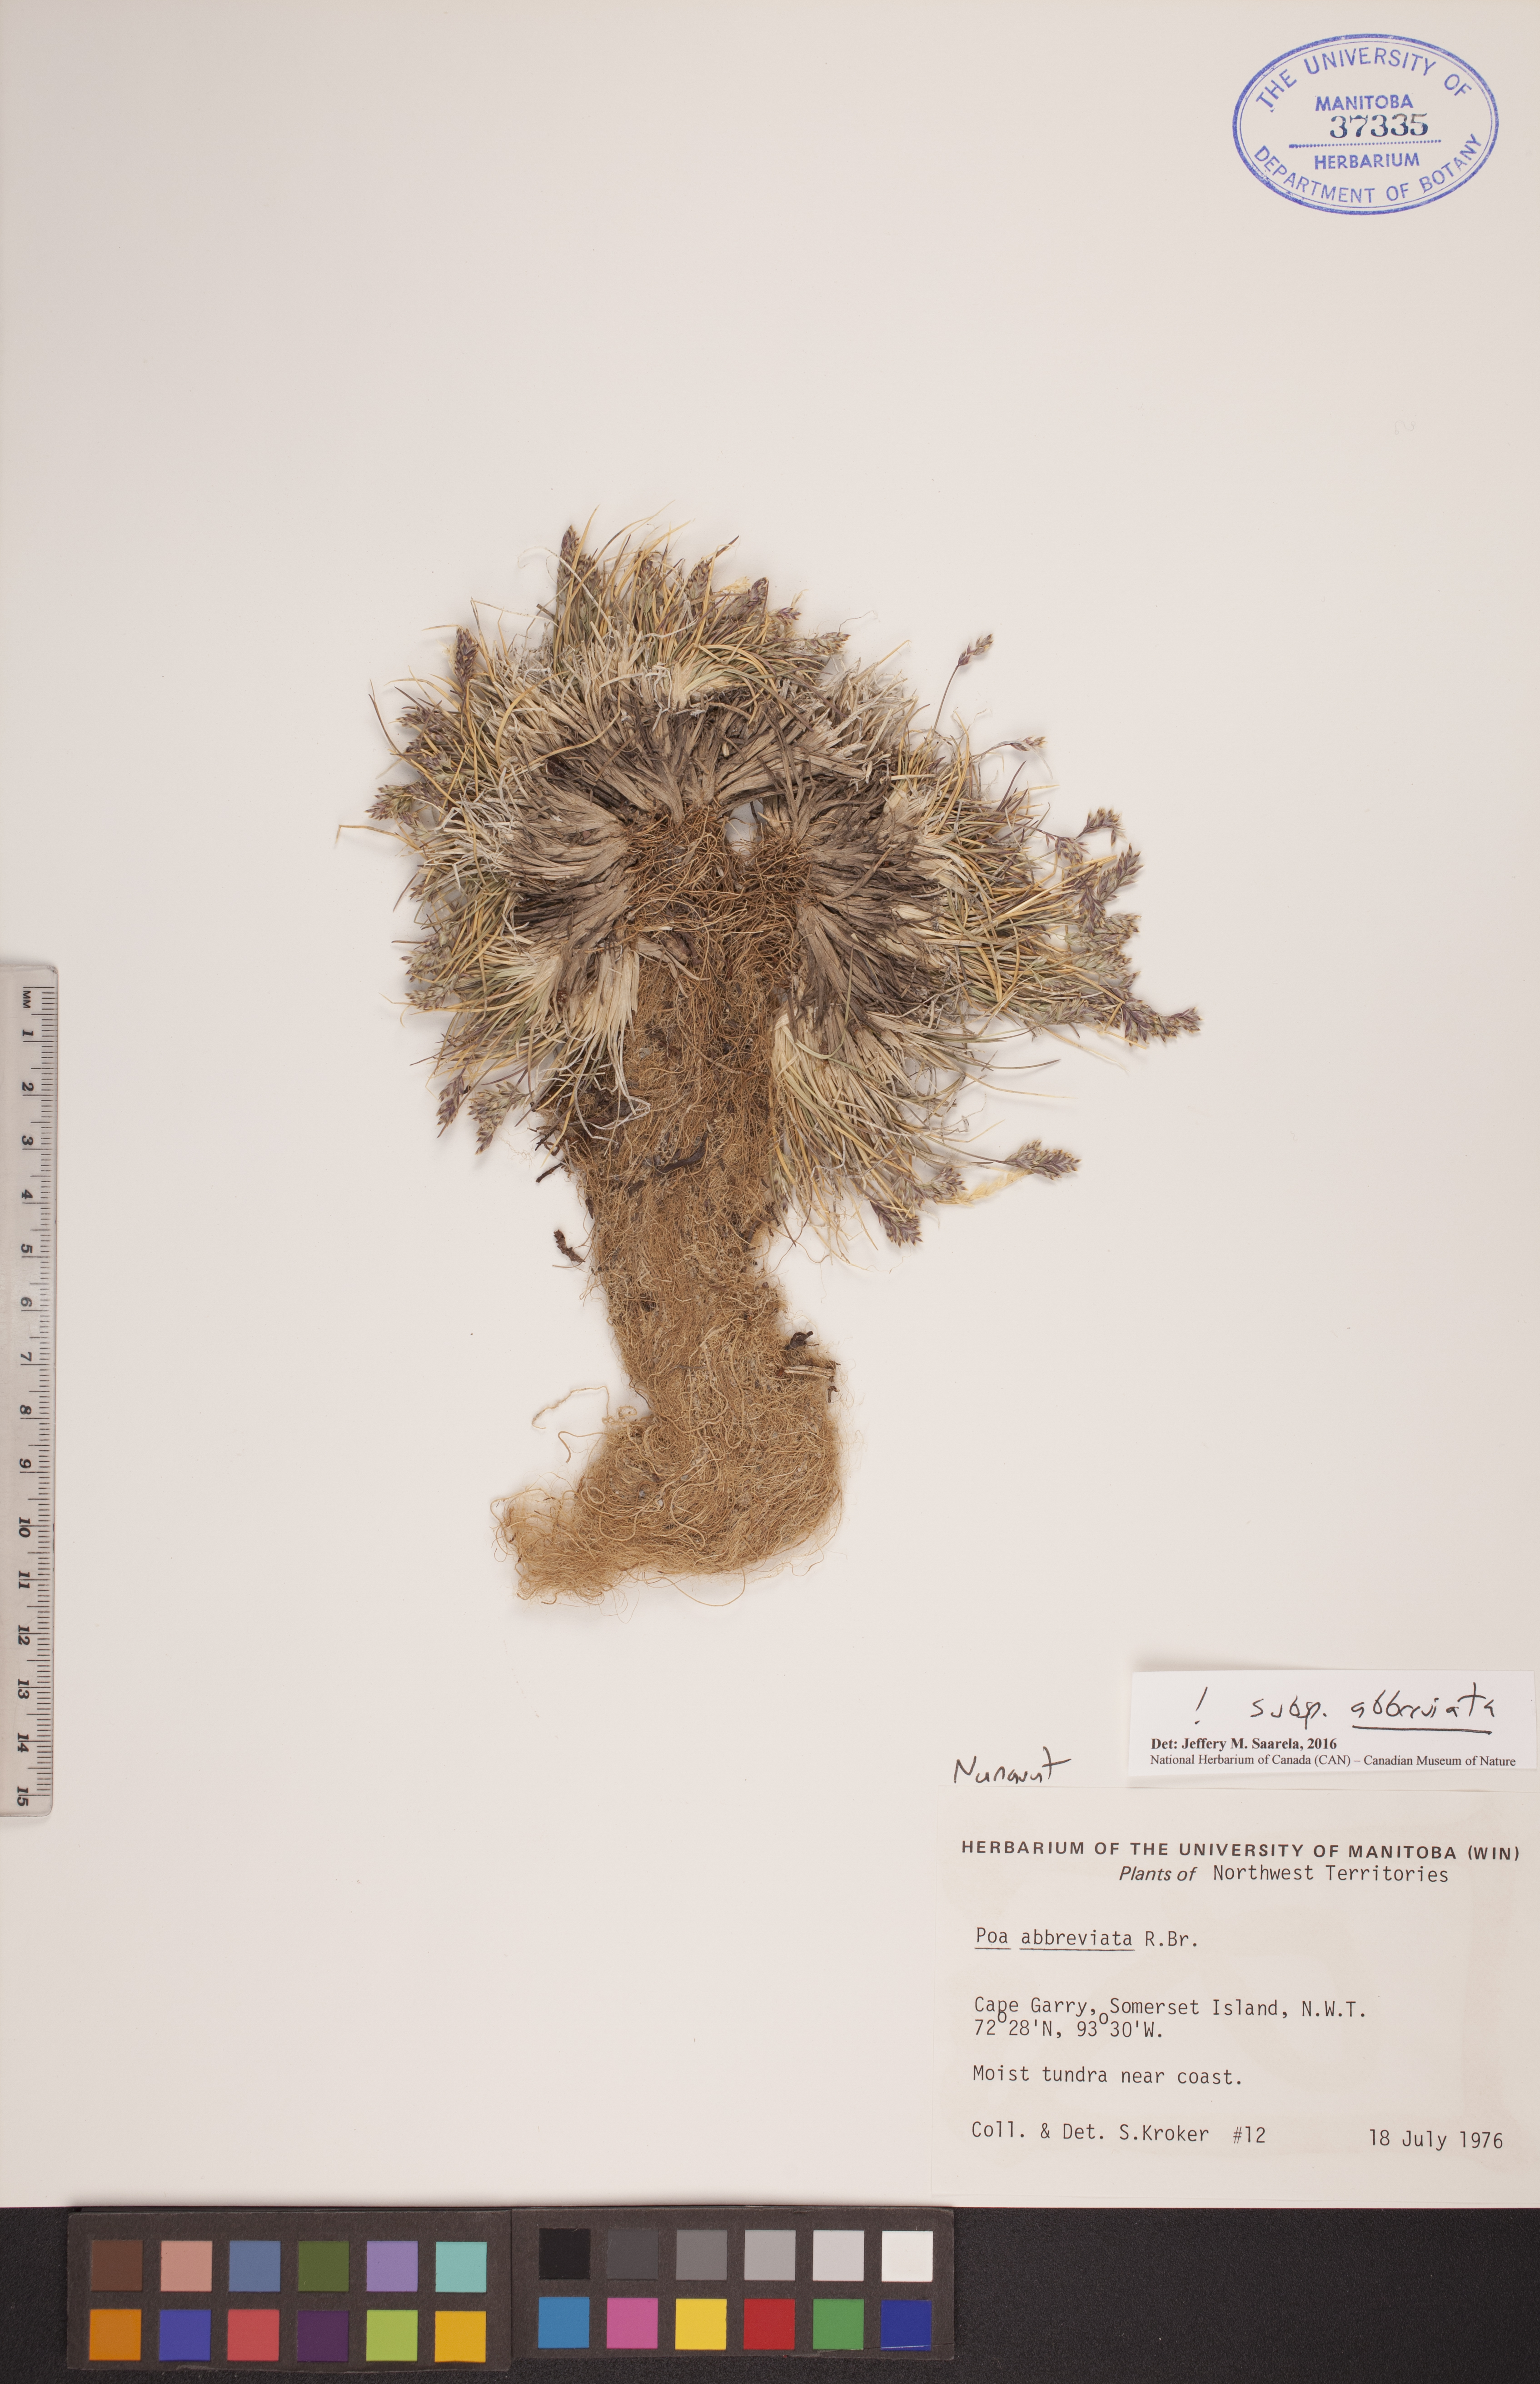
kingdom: Plantae
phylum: Tracheophyta
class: Liliopsida
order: Poales
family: Poaceae
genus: Poa
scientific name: Poa abbreviata
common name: Abbreviated bluegrass
